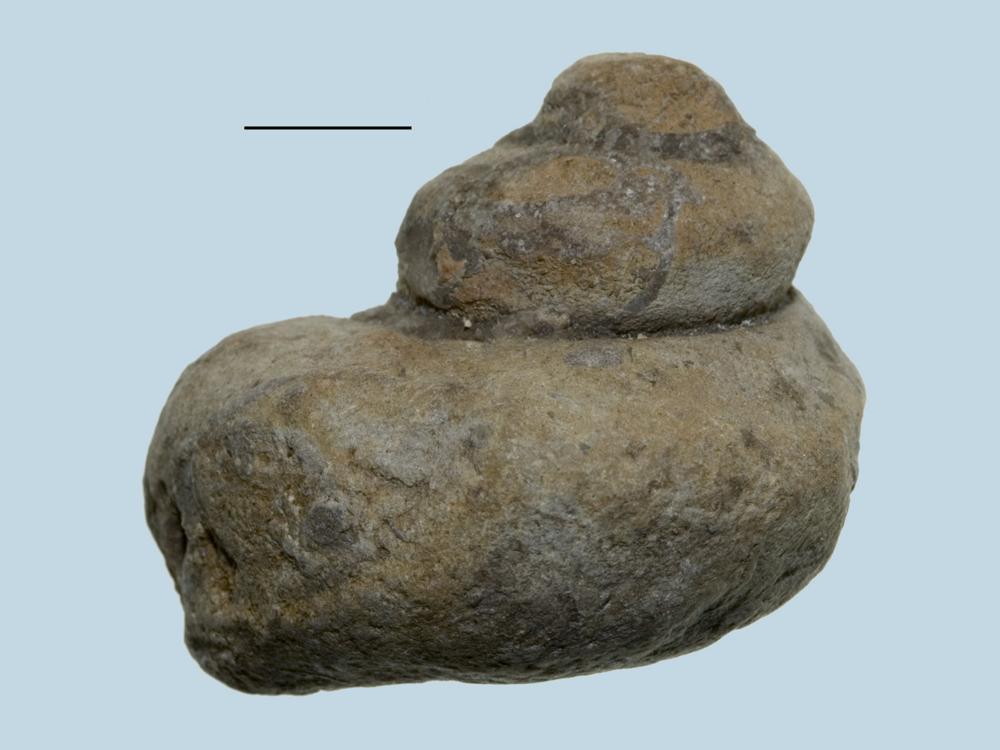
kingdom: Animalia
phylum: Mollusca
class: Gastropoda
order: Pleurotomariida
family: Phymatopleuridae
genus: Worthenia
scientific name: Worthenia
